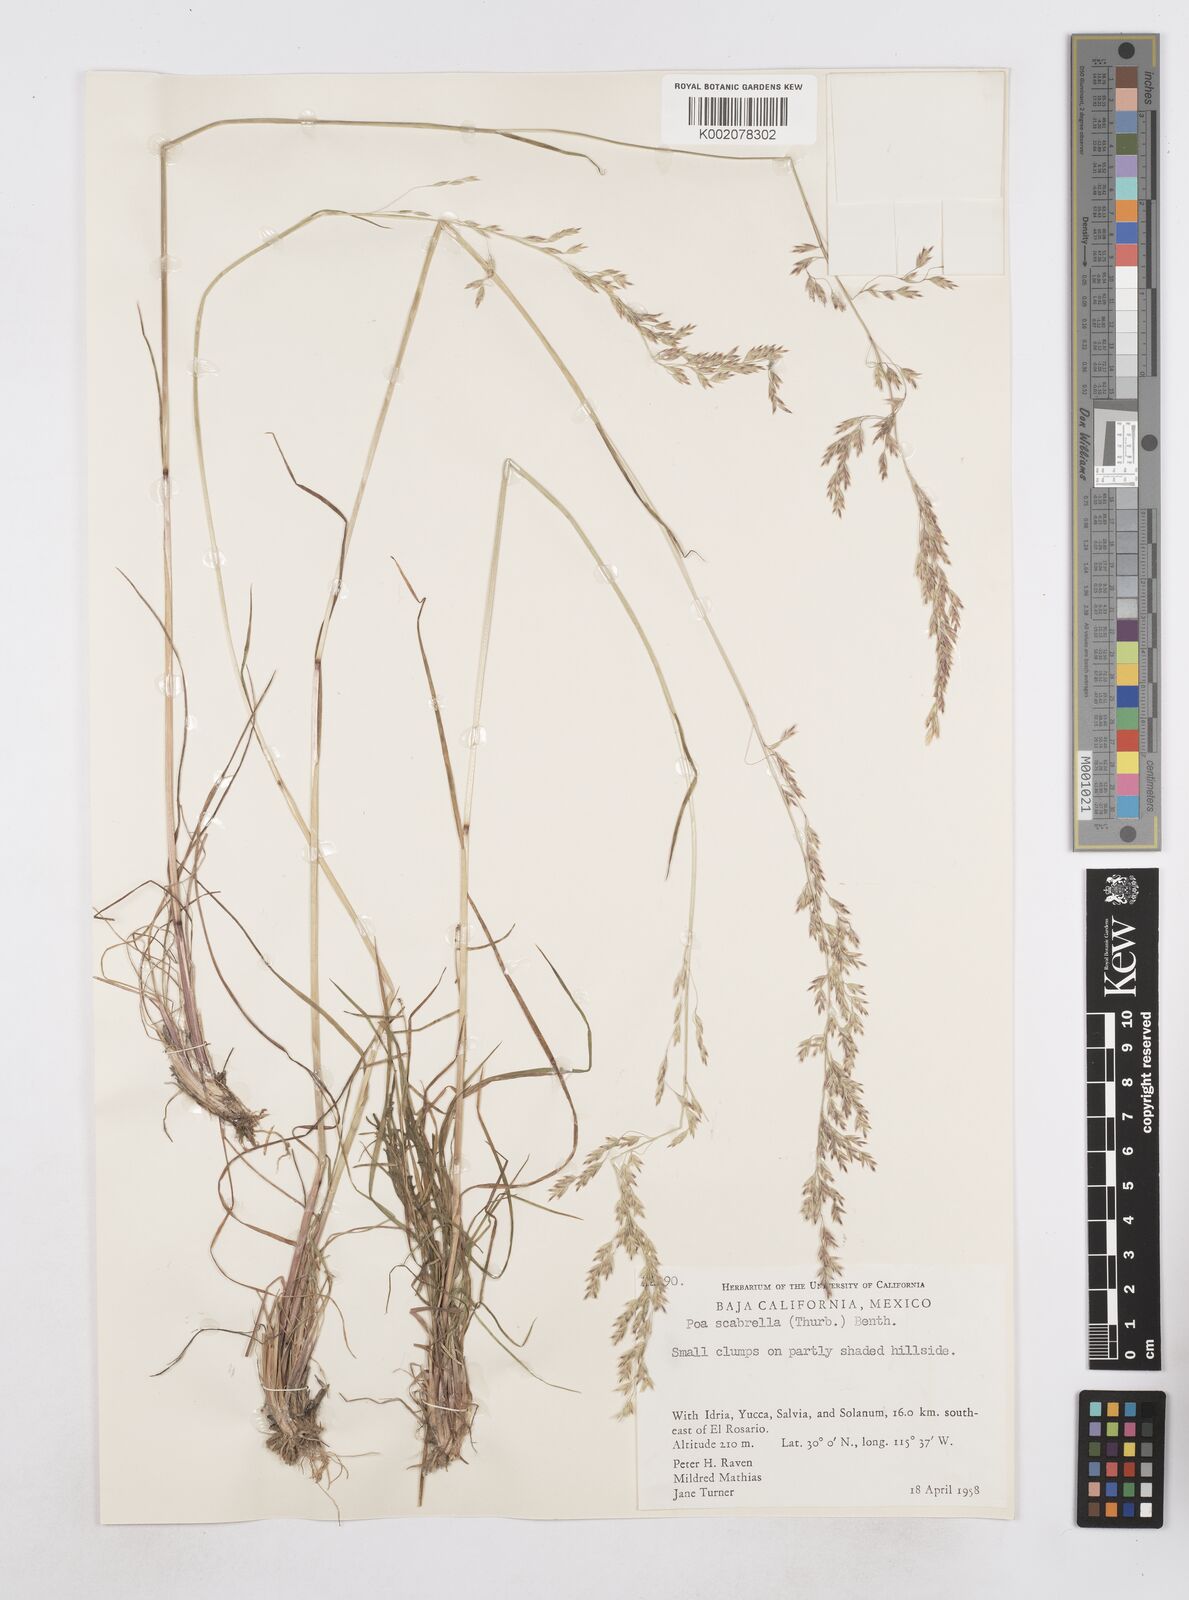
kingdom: Plantae
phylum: Tracheophyta
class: Liliopsida
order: Poales
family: Poaceae
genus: Poa
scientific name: Poa
